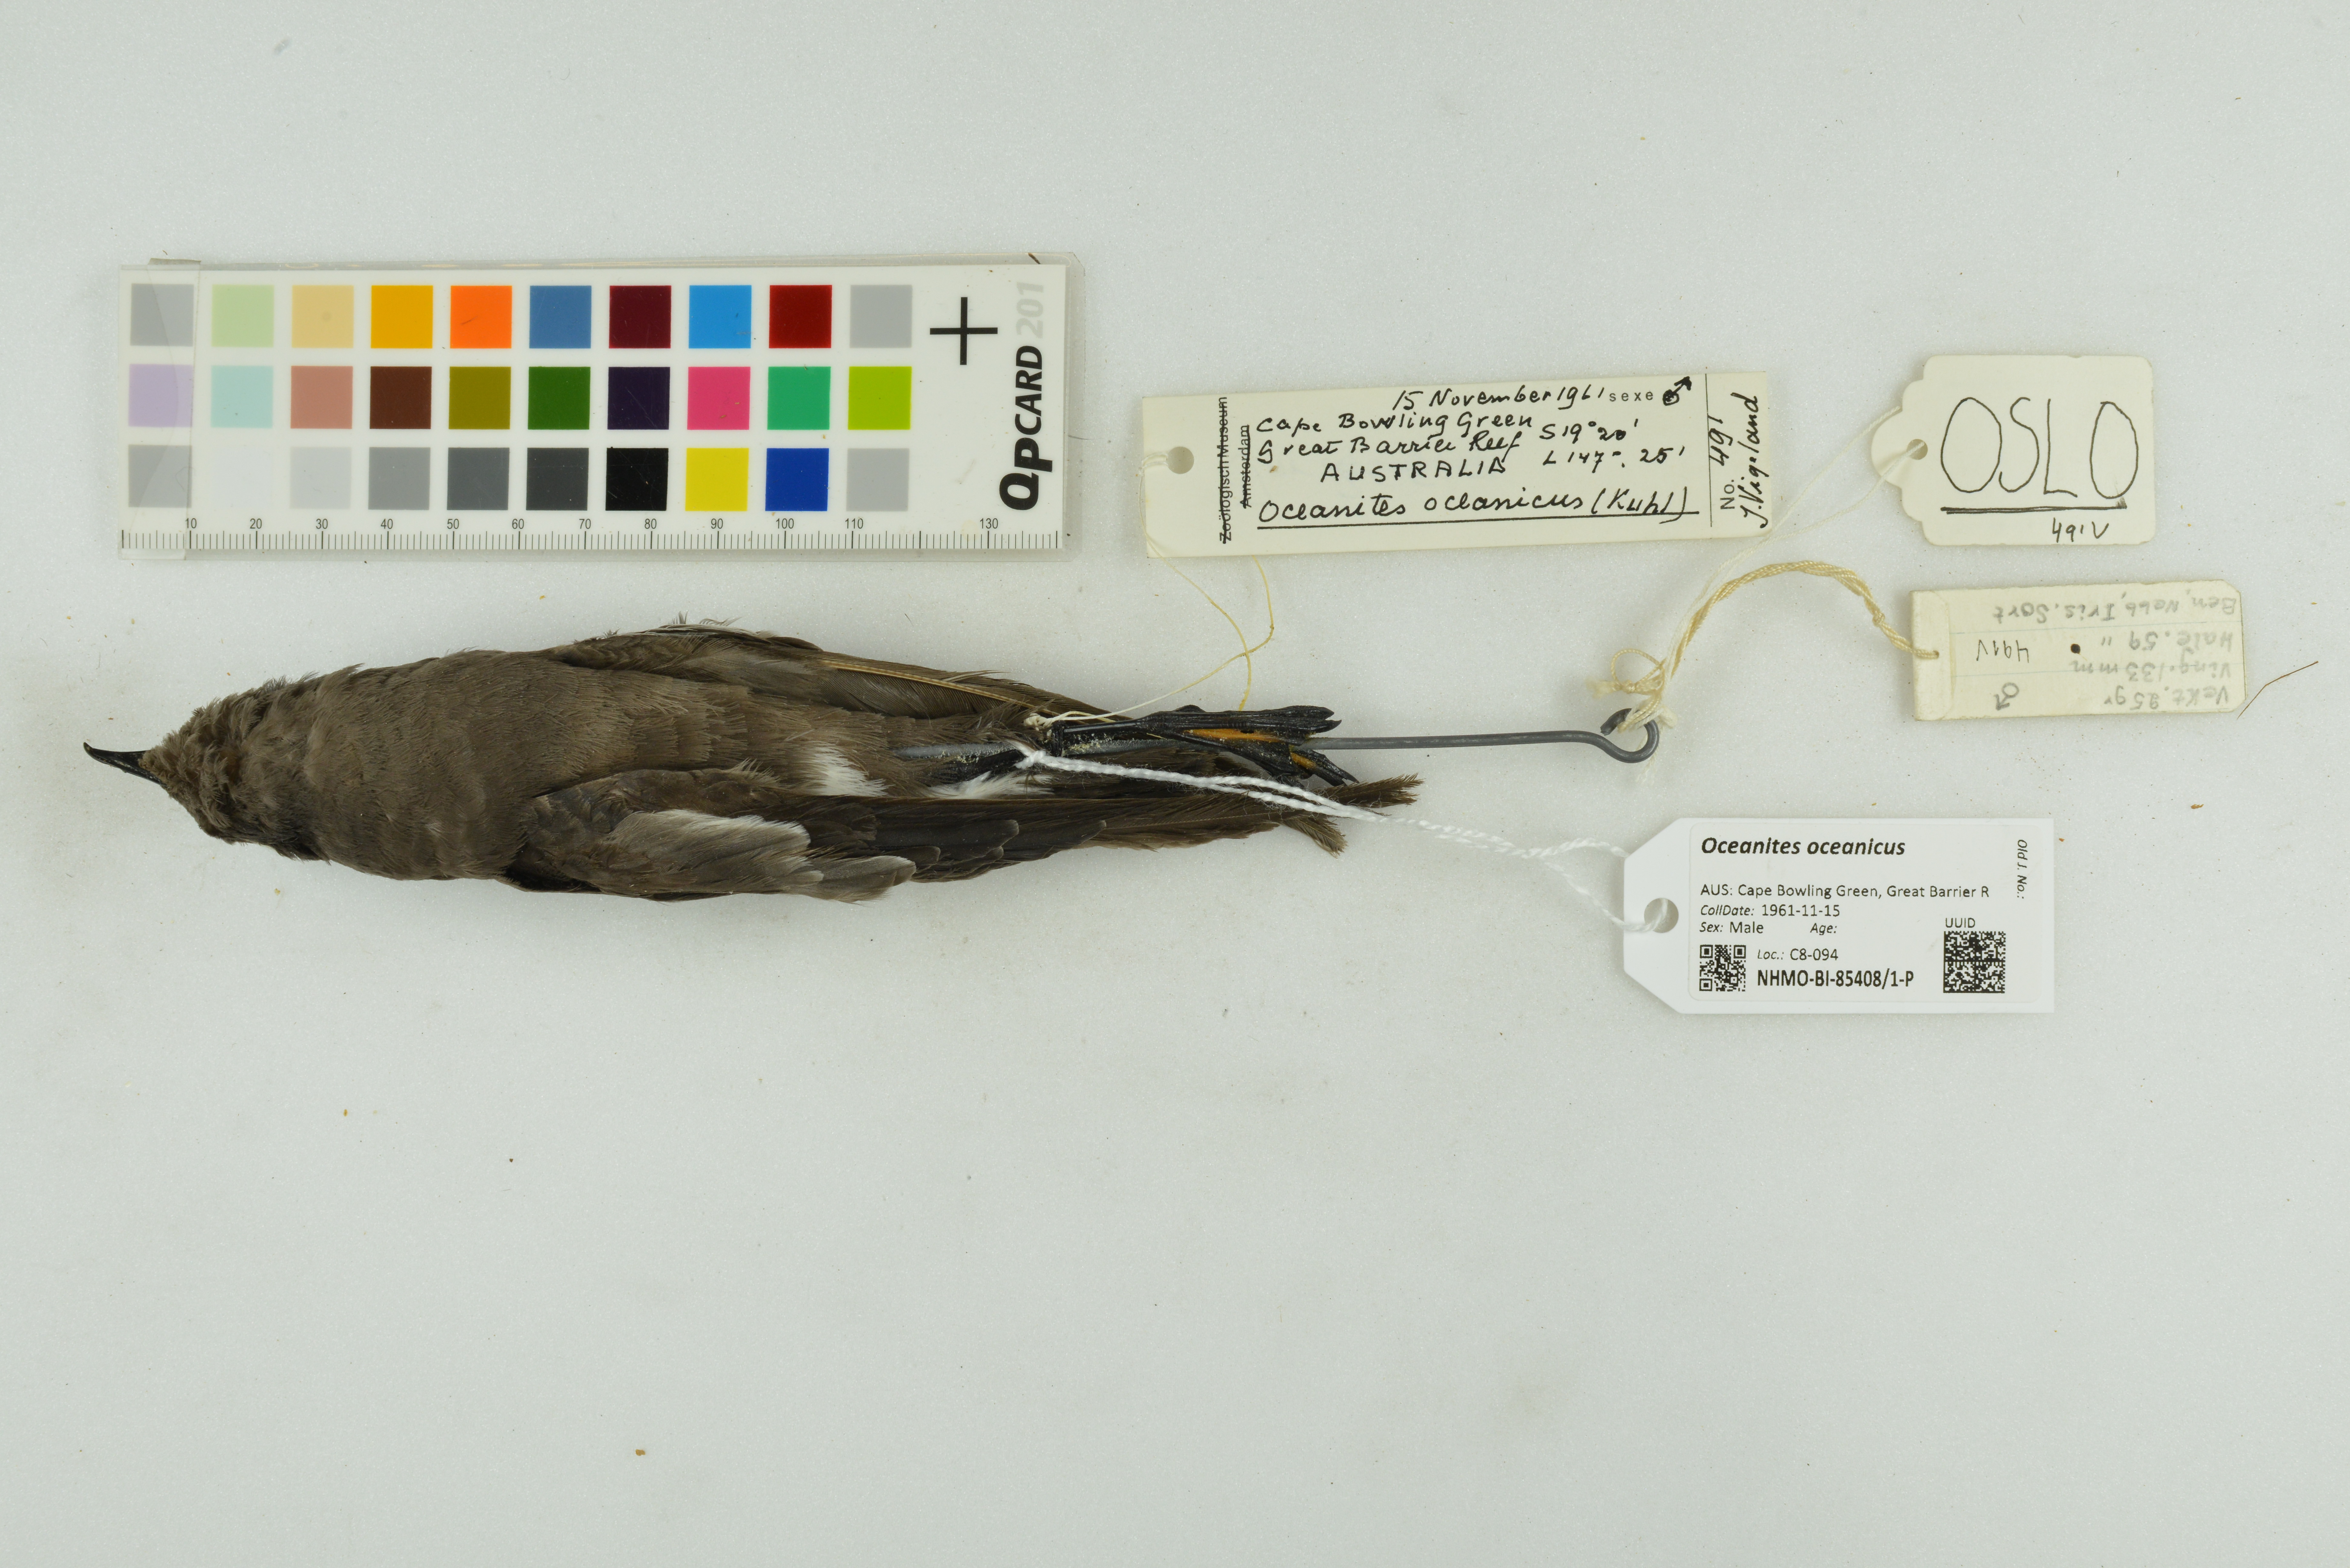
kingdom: Animalia
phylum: Chordata
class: Aves
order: Procellariiformes
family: Hydrobatidae
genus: Oceanites
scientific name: Oceanites oceanicus
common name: Wilson's storm petrel
